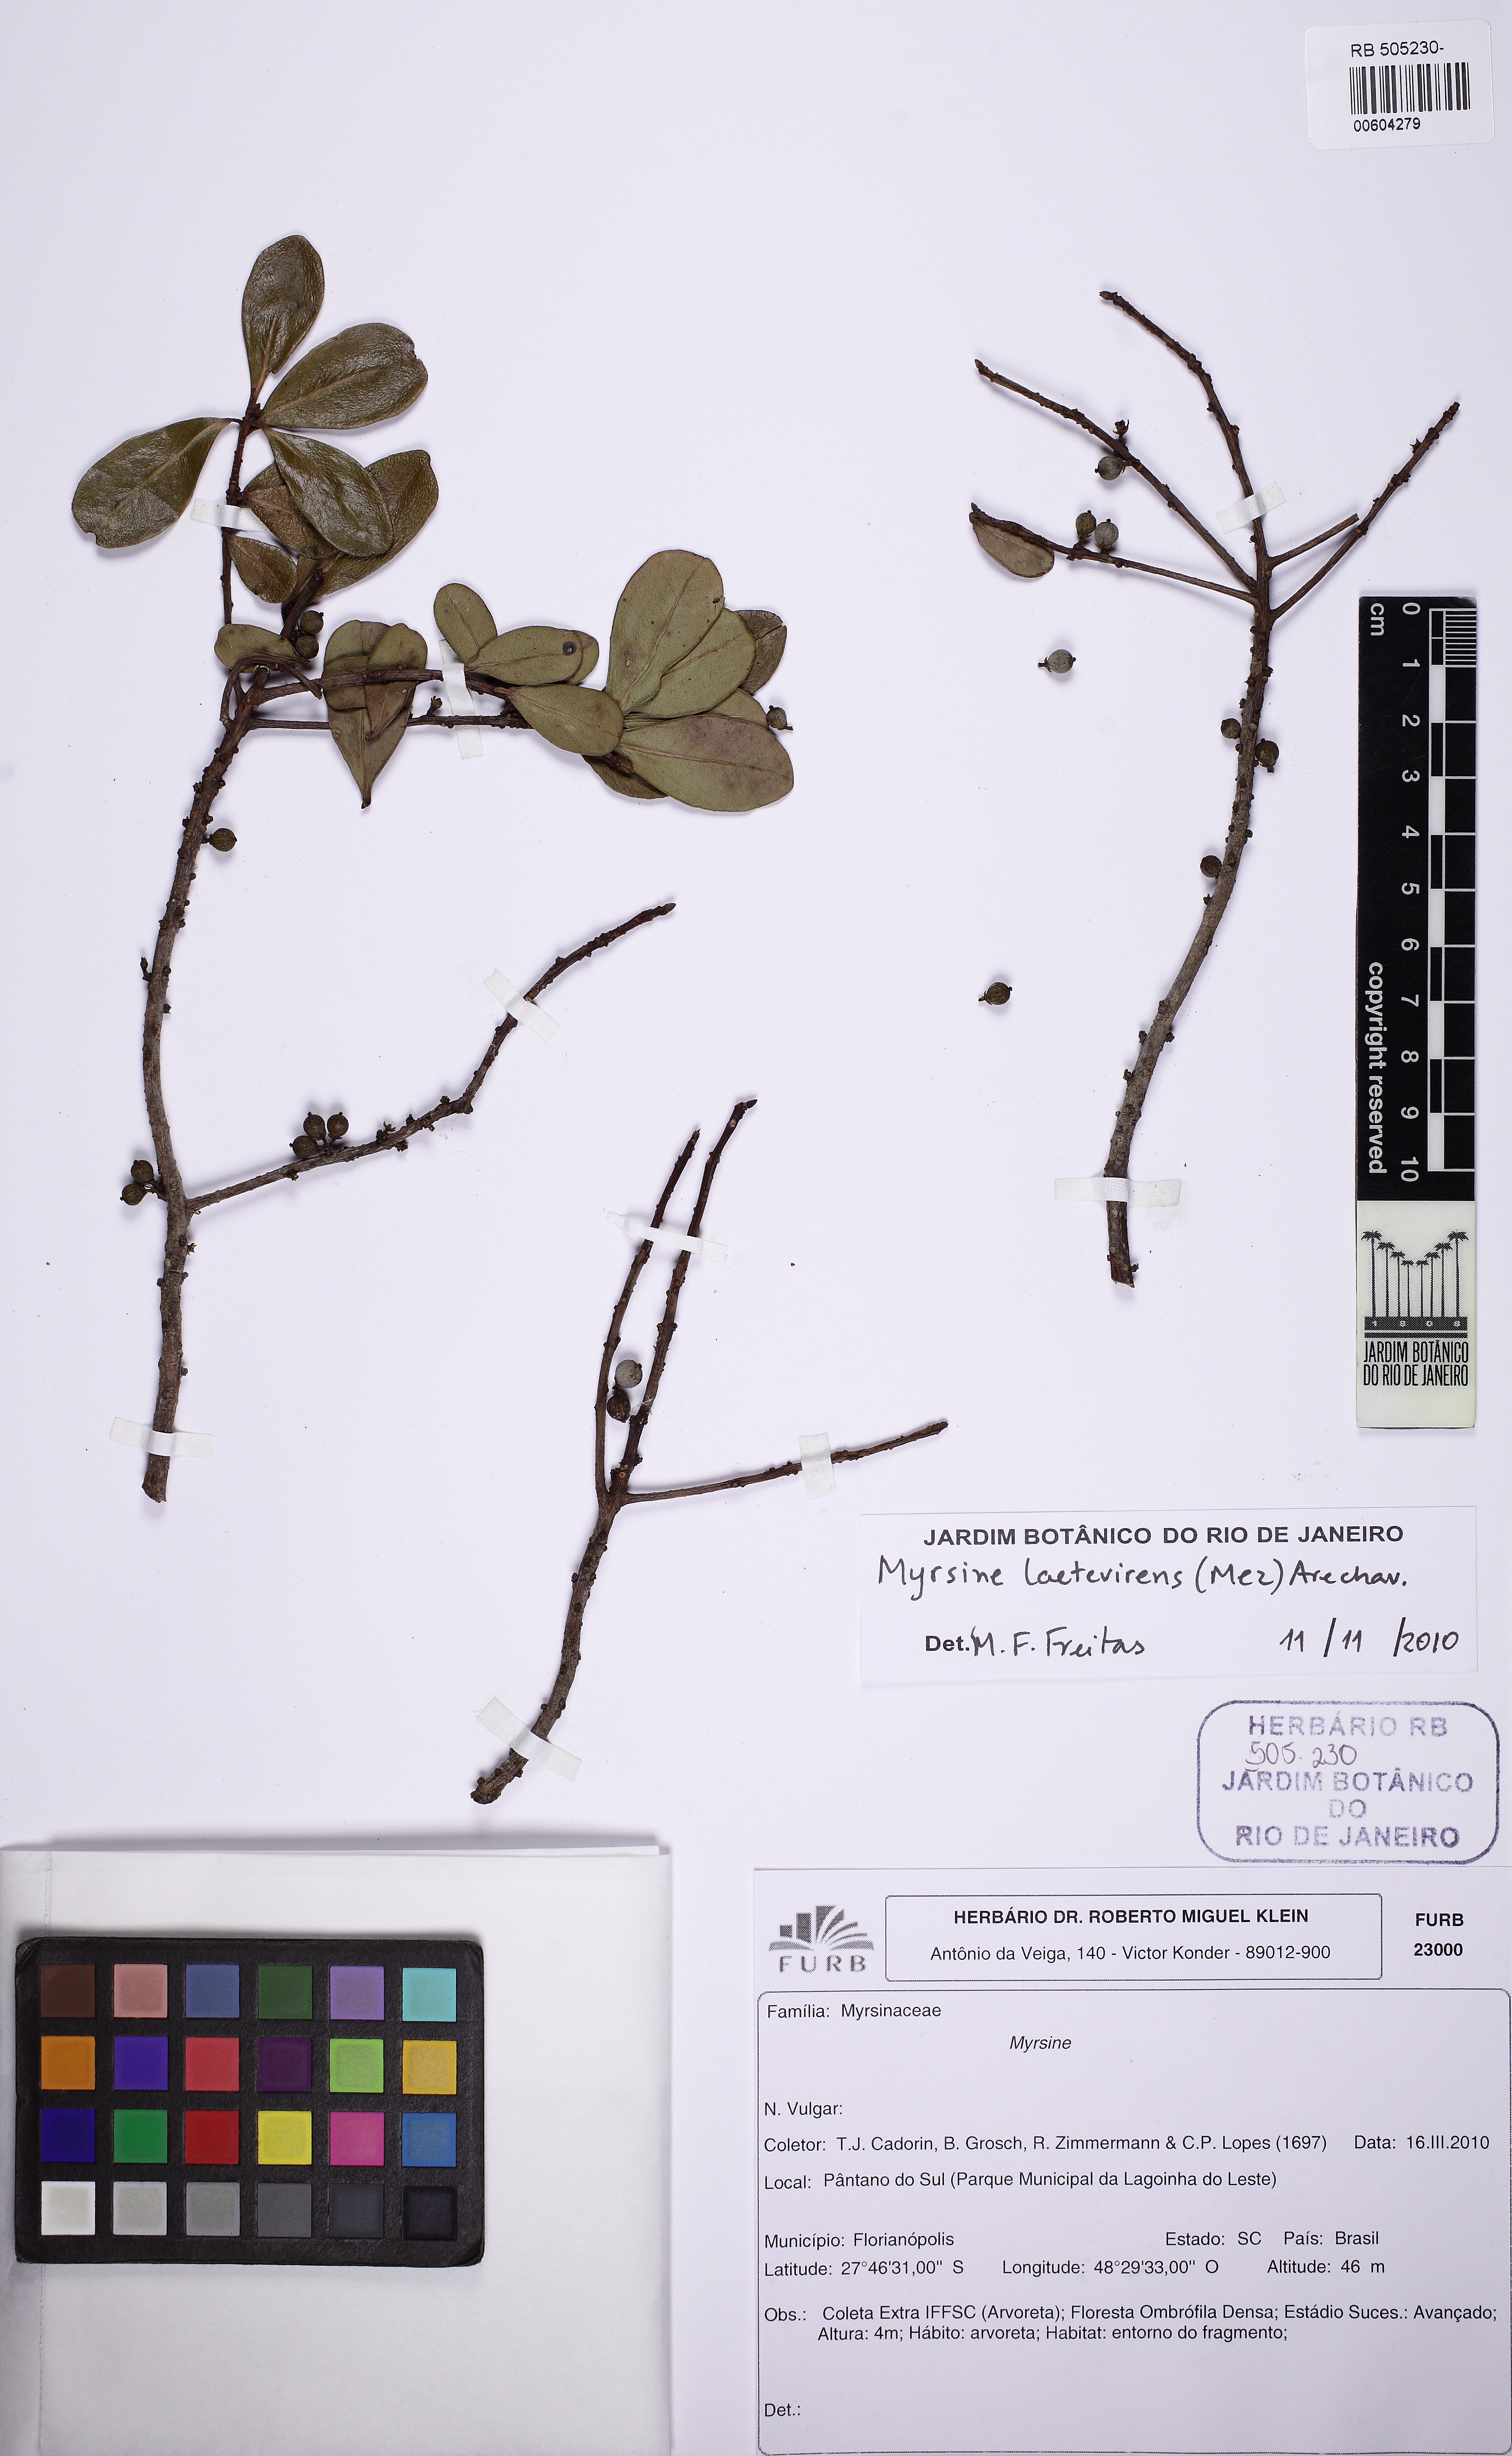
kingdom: Plantae
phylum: Tracheophyta
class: Magnoliopsida
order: Ericales
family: Primulaceae
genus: Myrsine
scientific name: Myrsine laetevirens
